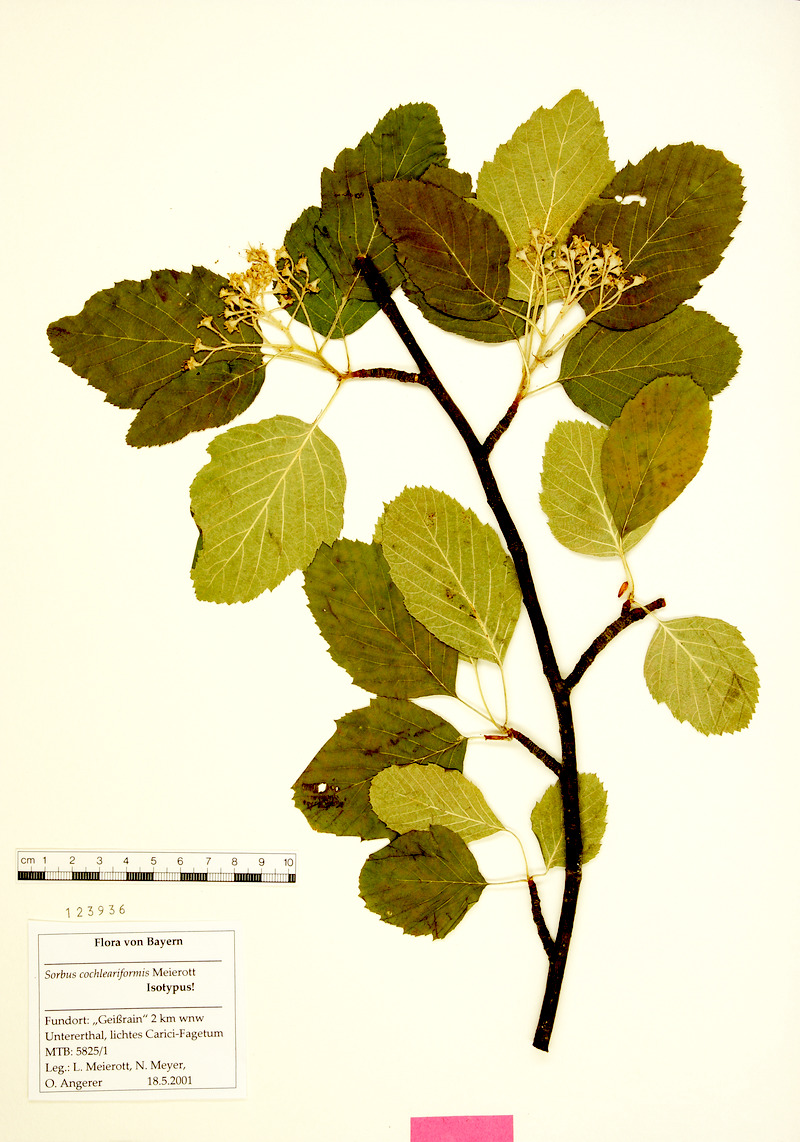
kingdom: Plantae
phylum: Tracheophyta
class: Magnoliopsida
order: Rosales
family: Rosaceae
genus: Karpatiosorbus
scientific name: Karpatiosorbus hybrida
